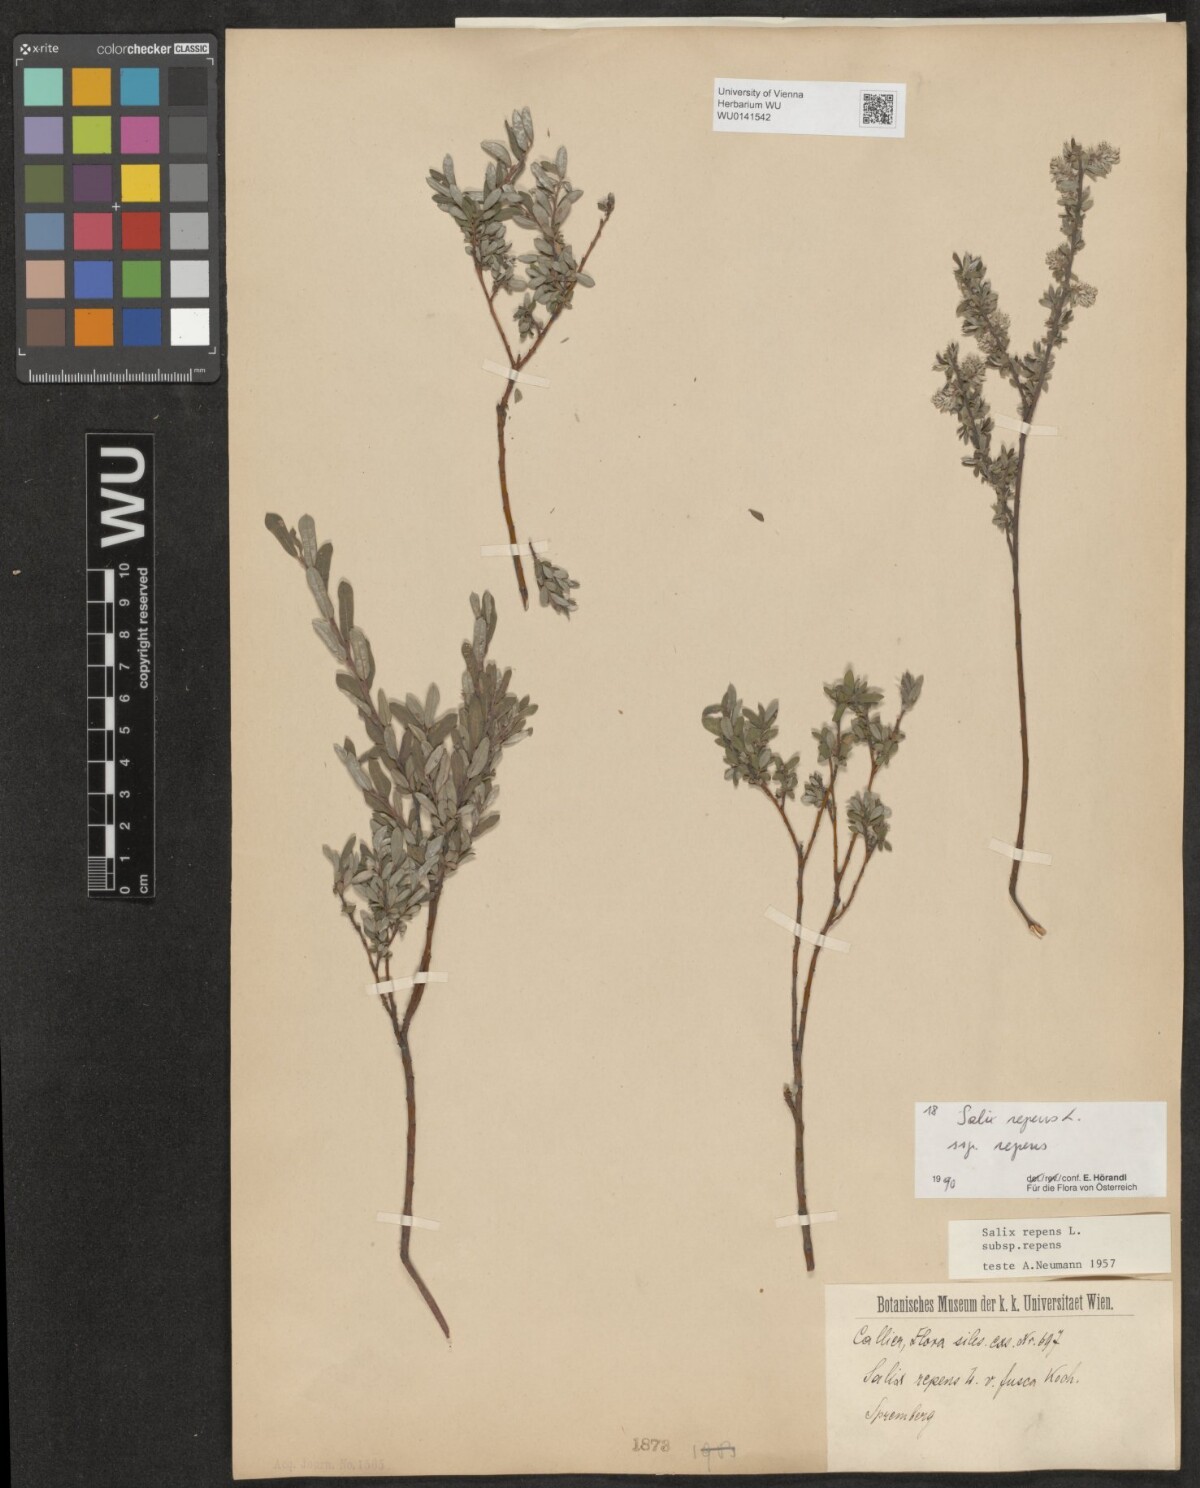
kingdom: Plantae
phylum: Tracheophyta
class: Magnoliopsida
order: Malpighiales
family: Salicaceae
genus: Salix
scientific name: Salix repens
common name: Creeping willow
